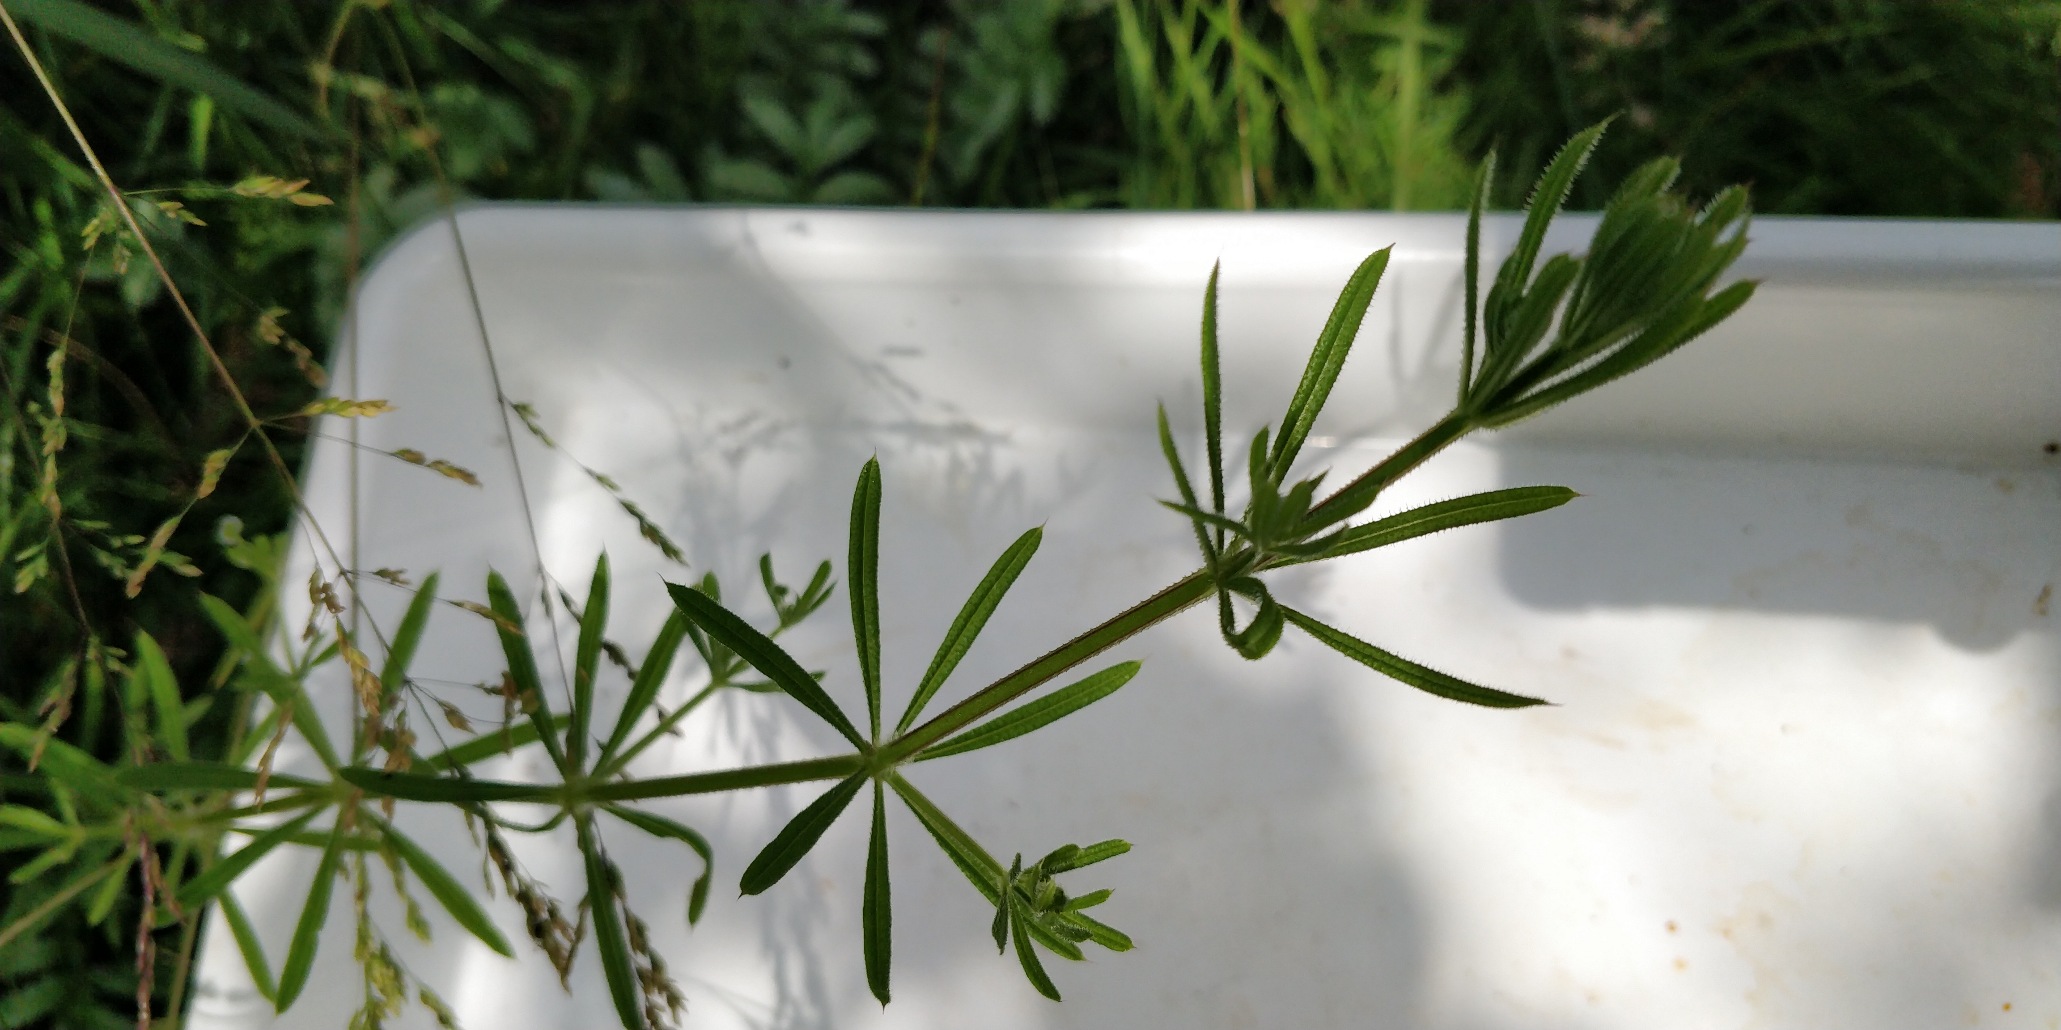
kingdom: Plantae
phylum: Tracheophyta
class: Magnoliopsida
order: Gentianales
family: Rubiaceae
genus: Galium
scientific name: Galium aparine
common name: Burre-snerre
